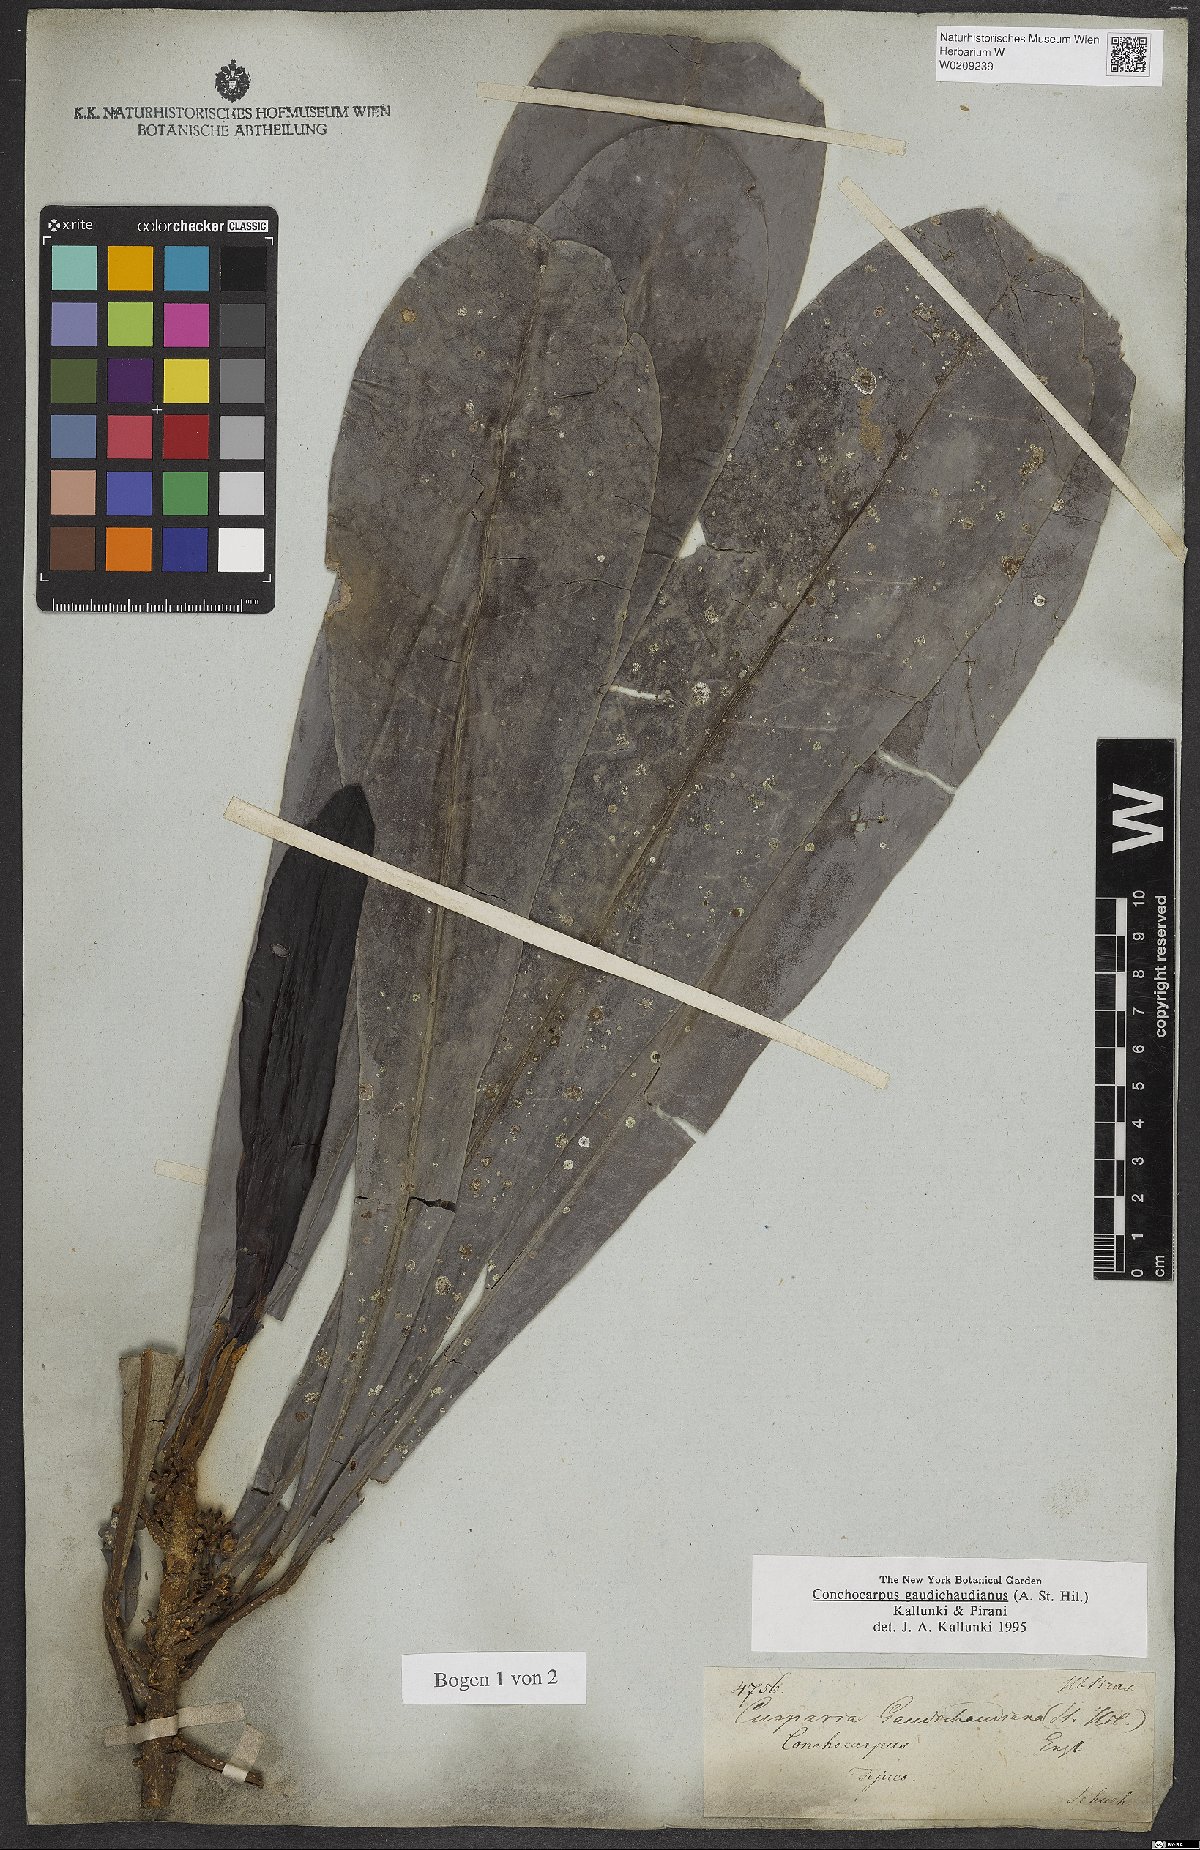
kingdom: Plantae
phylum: Tracheophyta
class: Magnoliopsida
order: Sapindales
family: Rutaceae
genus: Dryades
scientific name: Dryades gaudichaudiana
